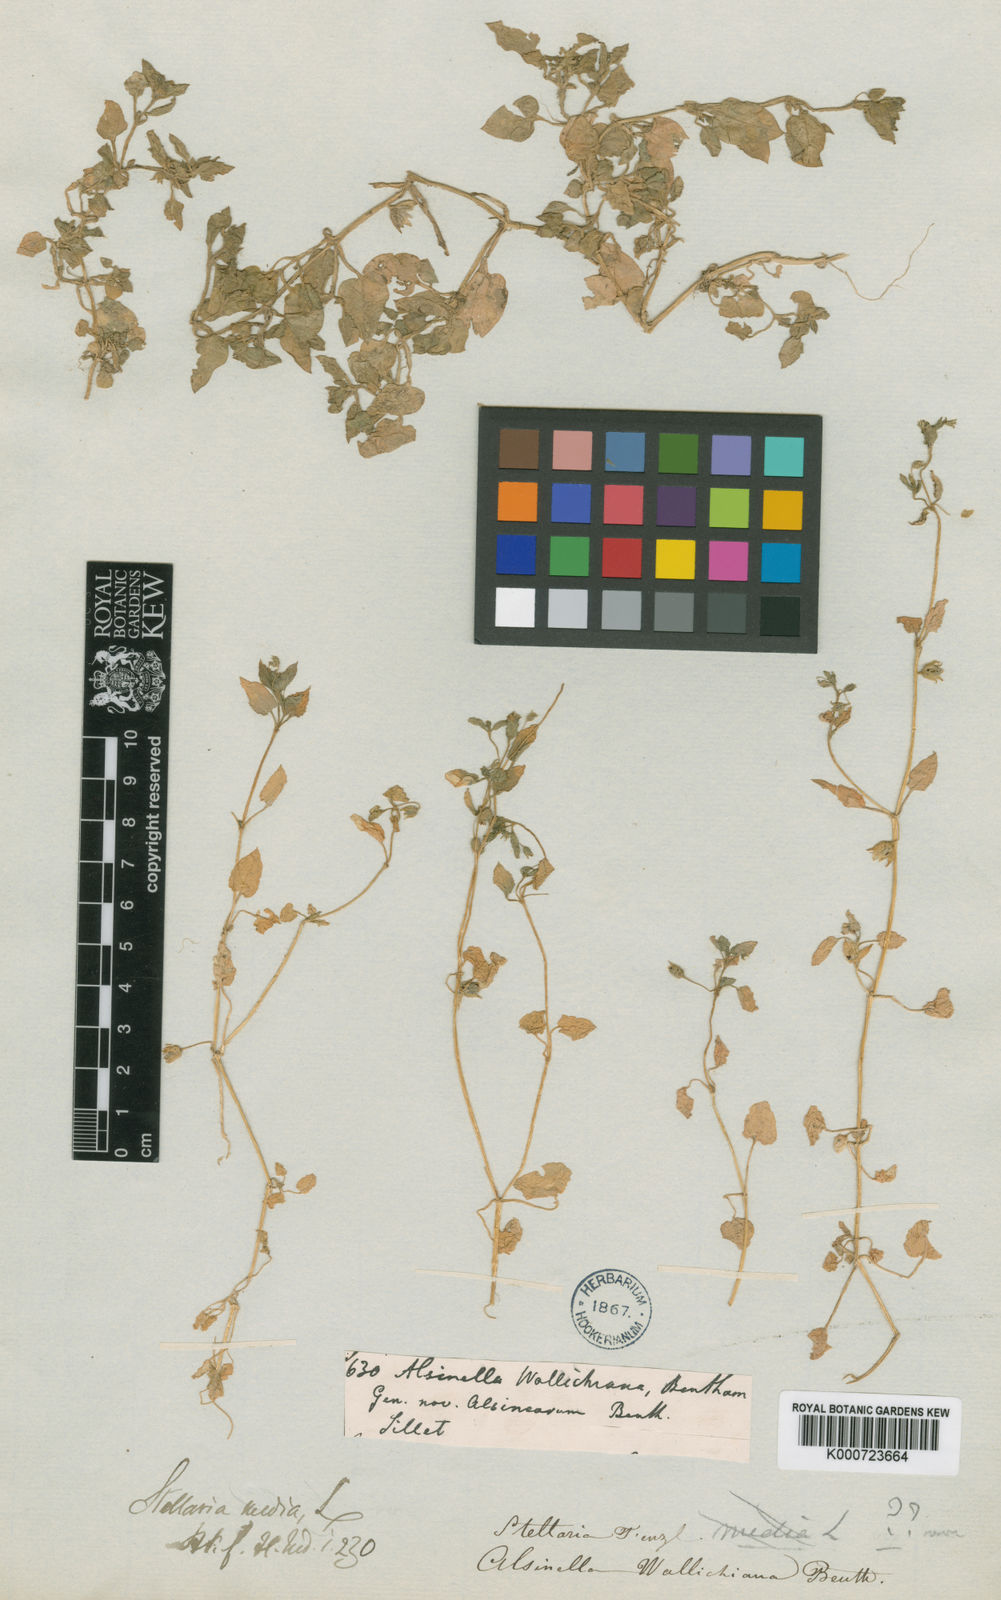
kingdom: Plantae
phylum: Tracheophyta
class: Magnoliopsida
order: Caryophyllales
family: Caryophyllaceae
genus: Stellaria
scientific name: Stellaria media
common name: Common chickweed
